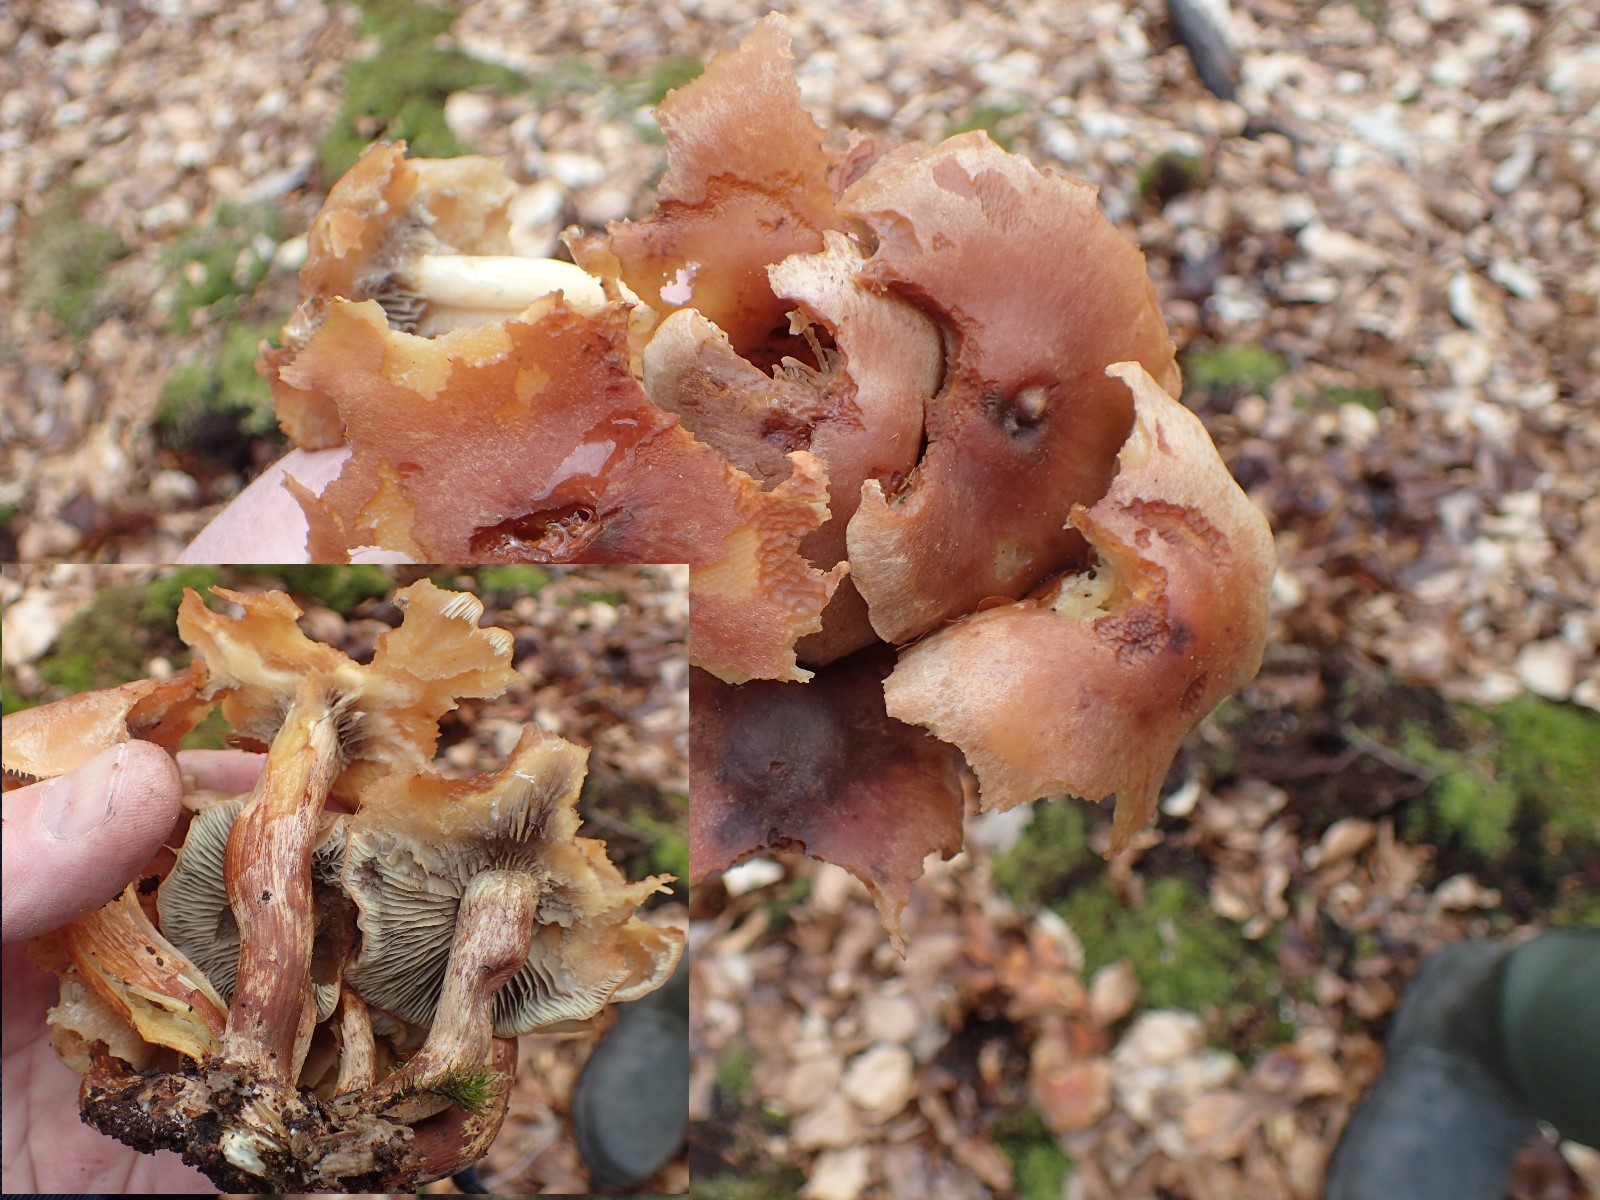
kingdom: Fungi
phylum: Basidiomycota
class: Agaricomycetes
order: Agaricales
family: Strophariaceae
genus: Hypholoma
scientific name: Hypholoma lateritium
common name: teglrød svovlhat
